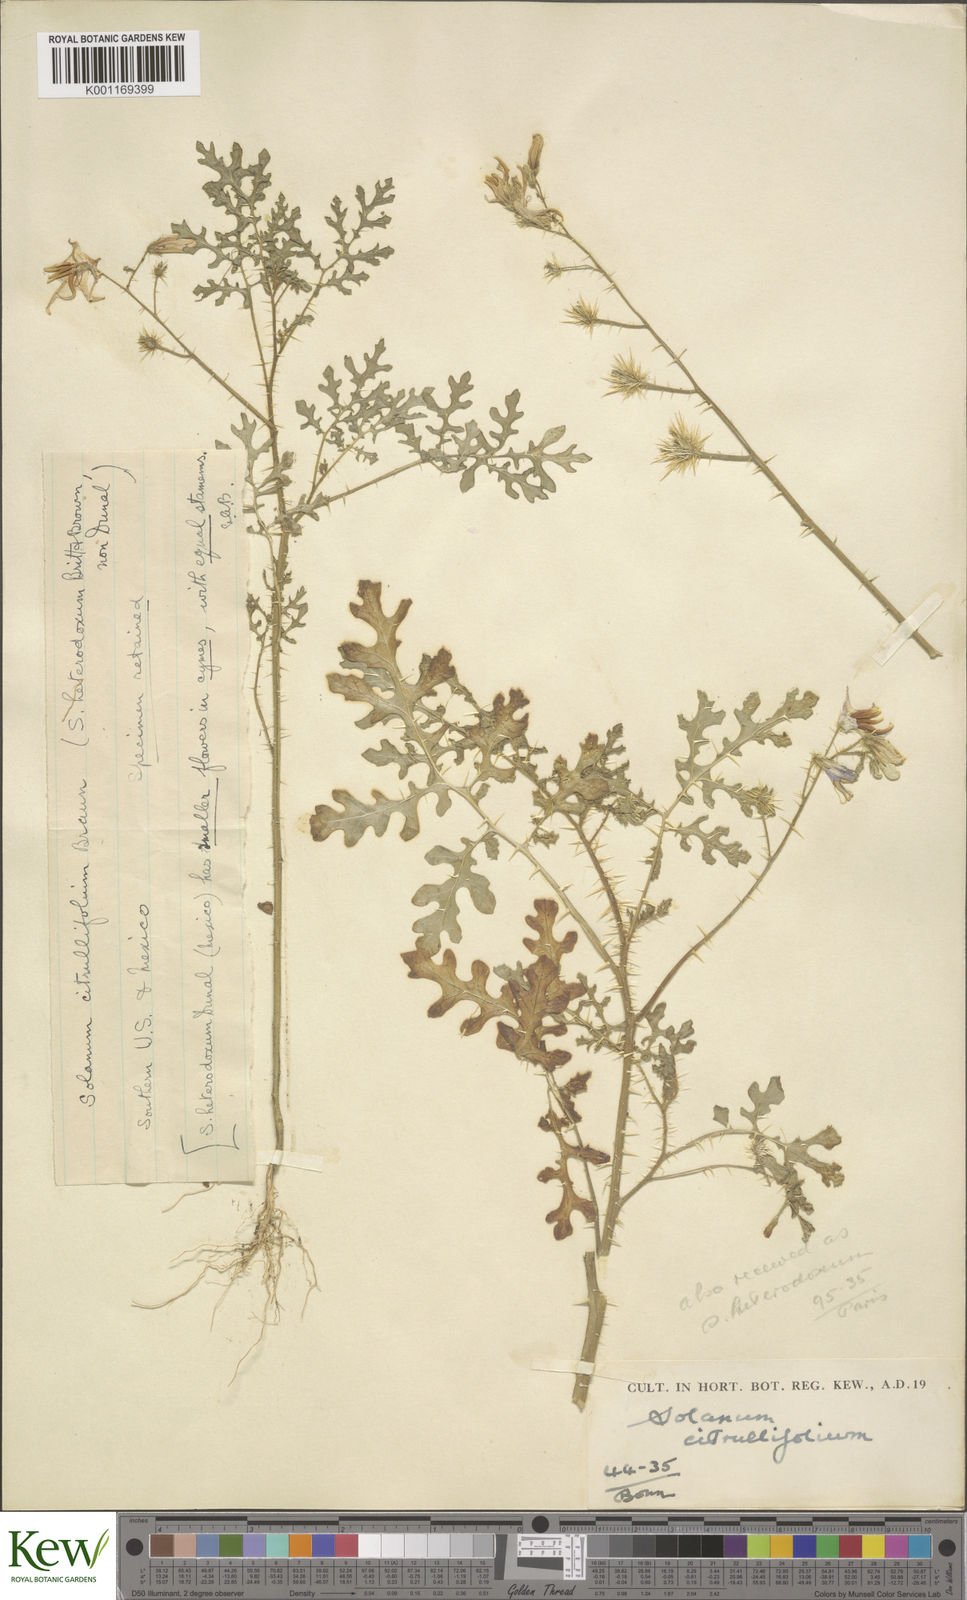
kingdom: Plantae
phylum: Tracheophyta
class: Magnoliopsida
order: Solanales
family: Solanaceae
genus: Solanum
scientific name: Solanum citrullifolium
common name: Melon-leaf nightshade
